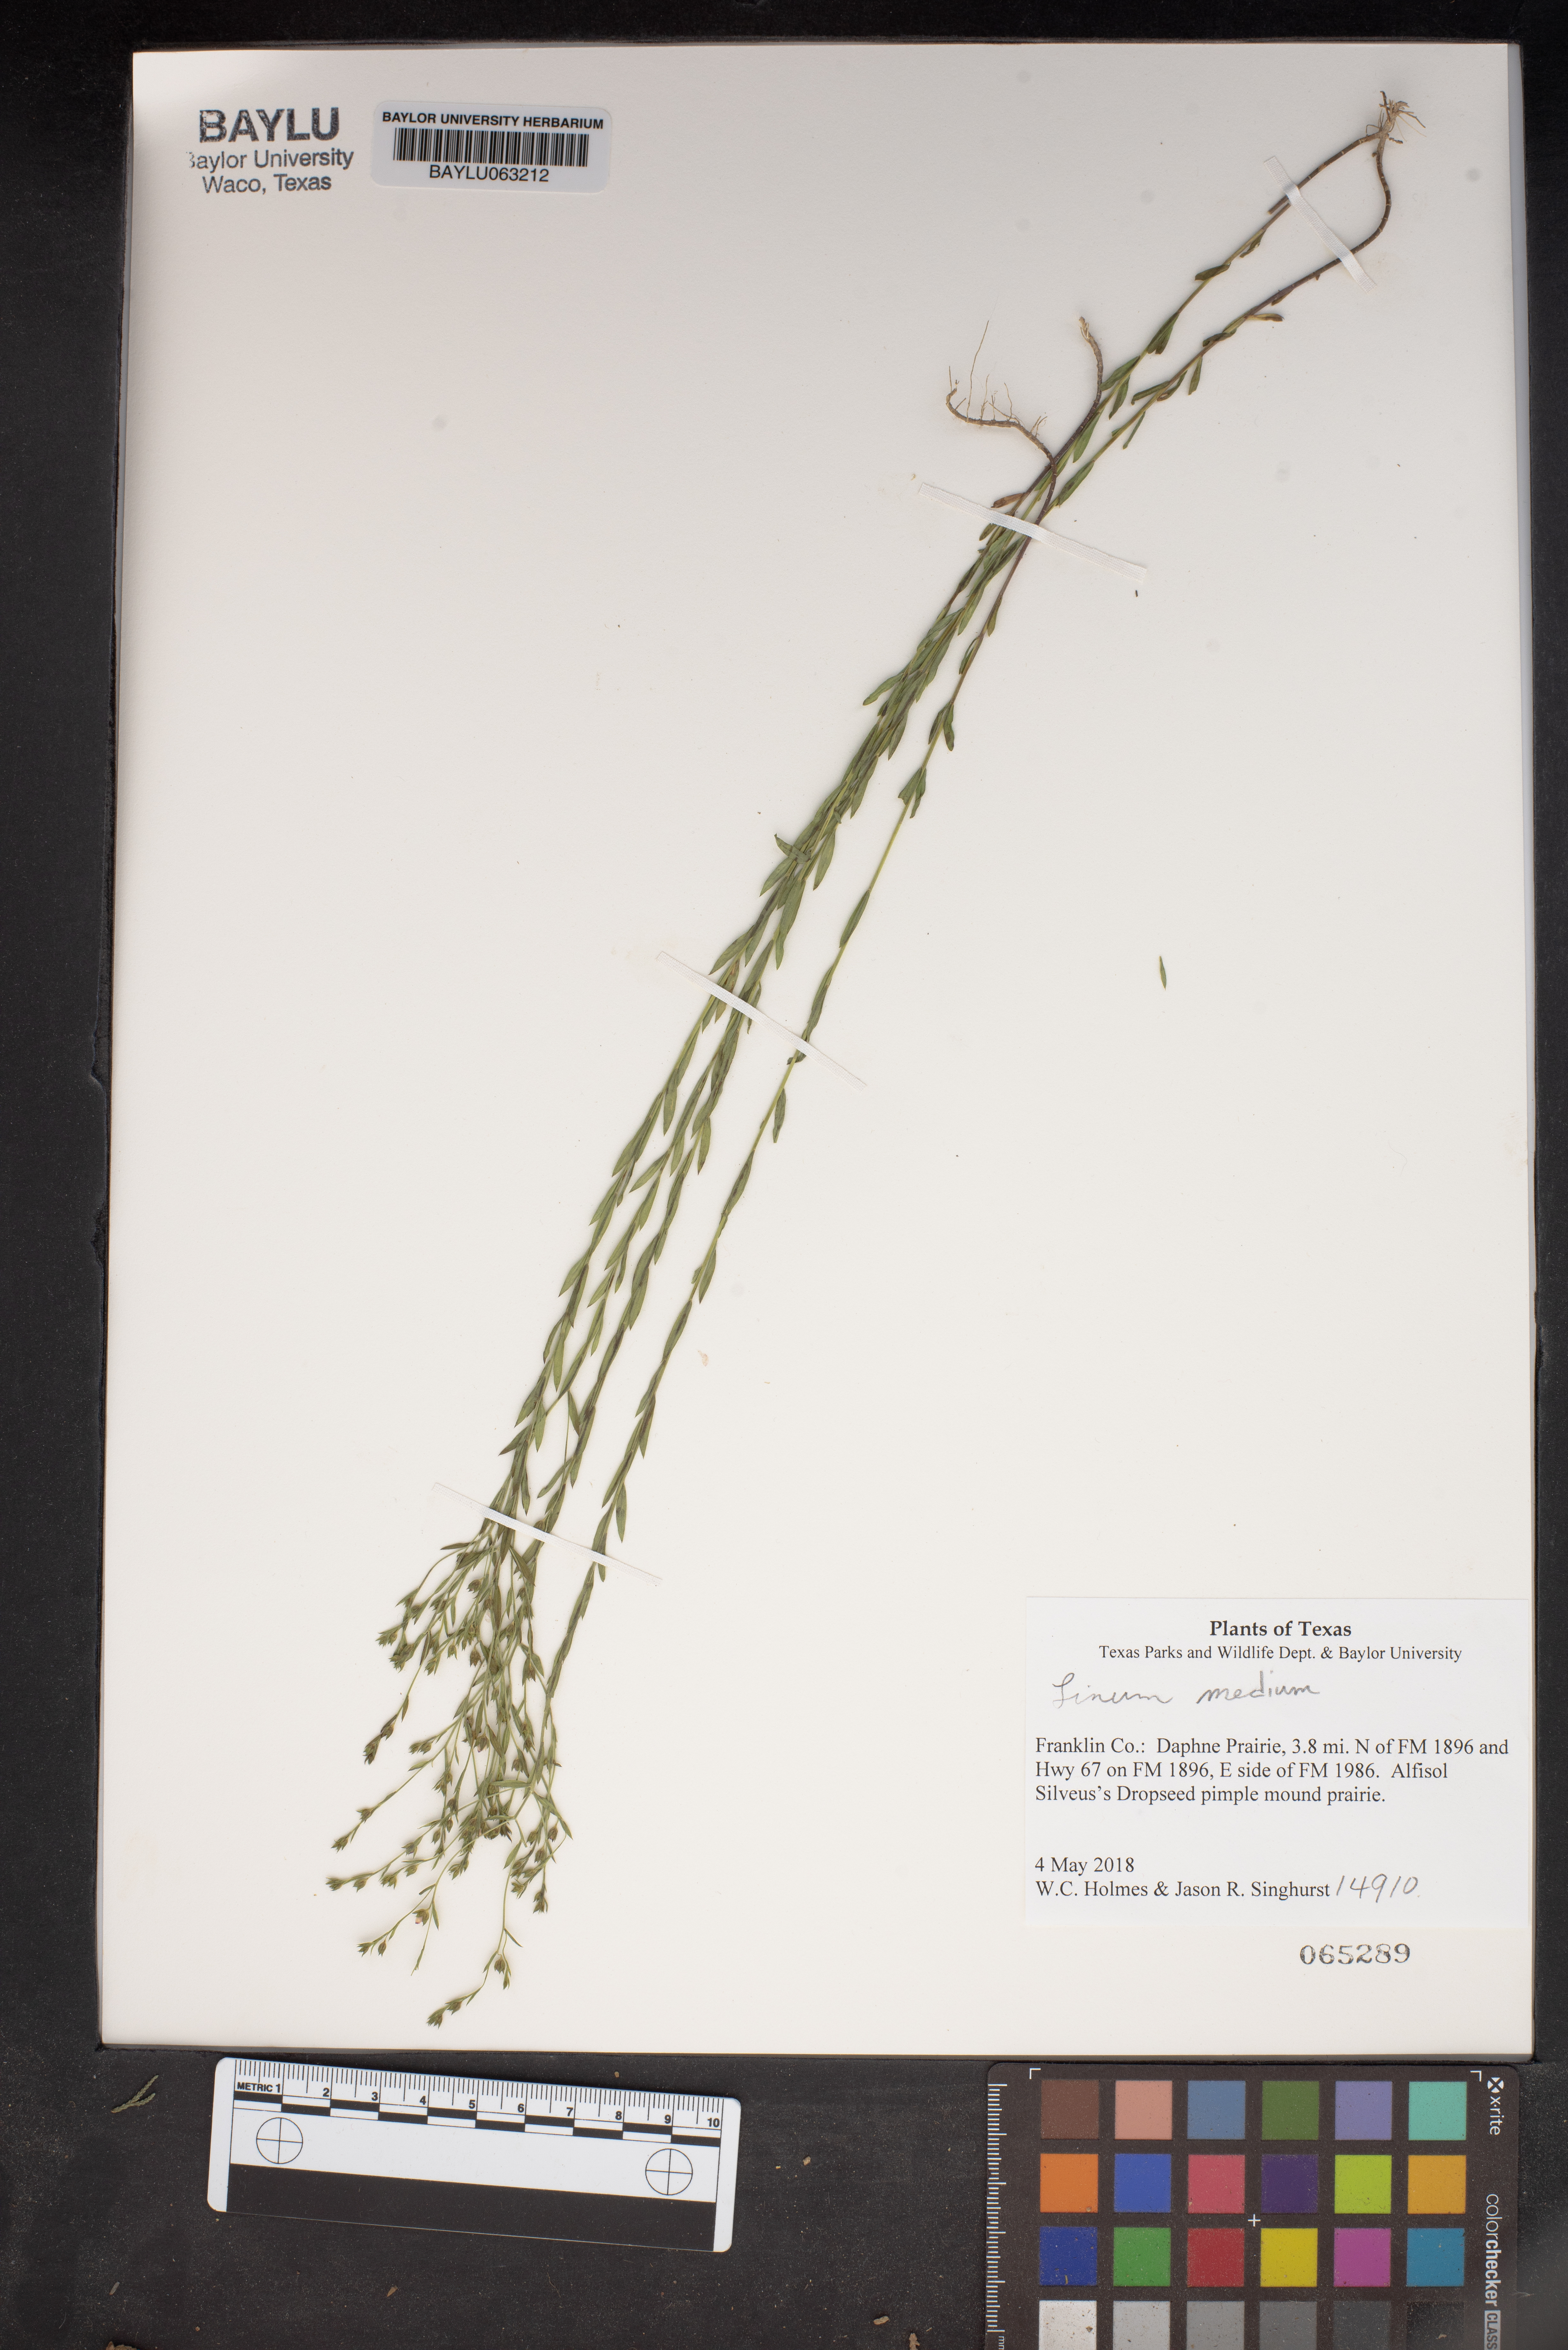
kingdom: Plantae
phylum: Tracheophyta
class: Magnoliopsida
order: Malpighiales
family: Linaceae
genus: Linum
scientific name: Linum medium
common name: Stiff yellow flax
